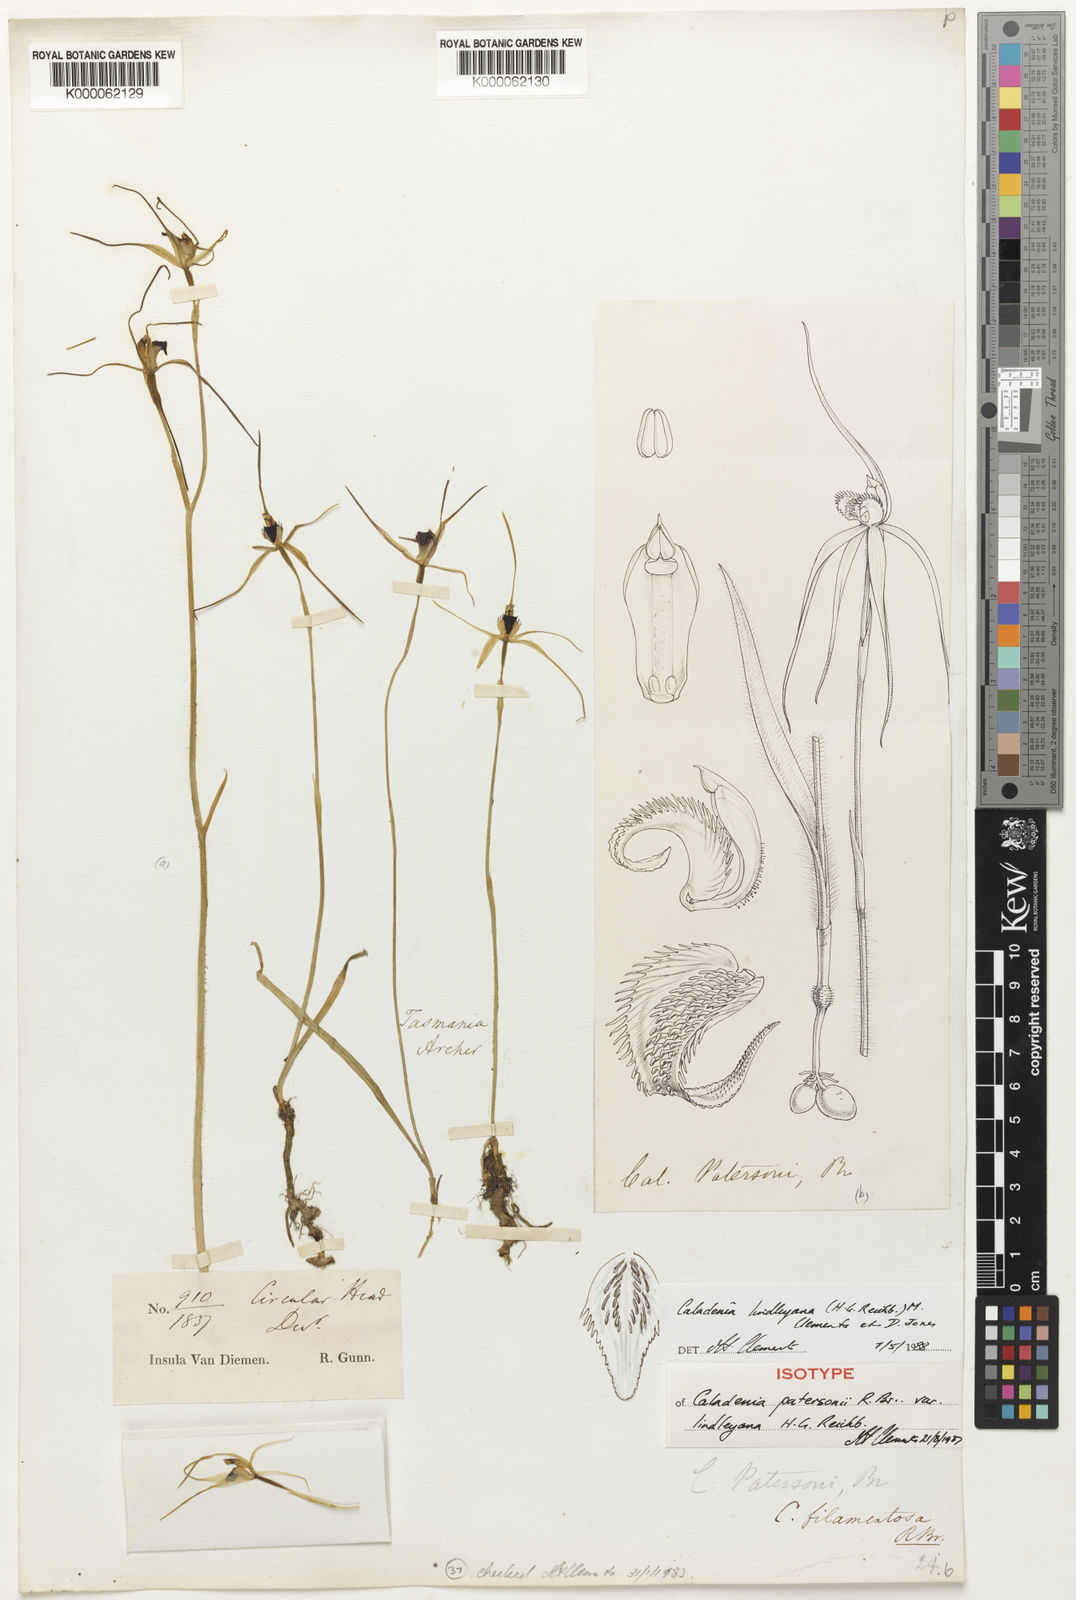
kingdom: Plantae
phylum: Tracheophyta
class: Liliopsida
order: Asparagales
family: Orchidaceae
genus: Caladenia
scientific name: Caladenia filamentosa
